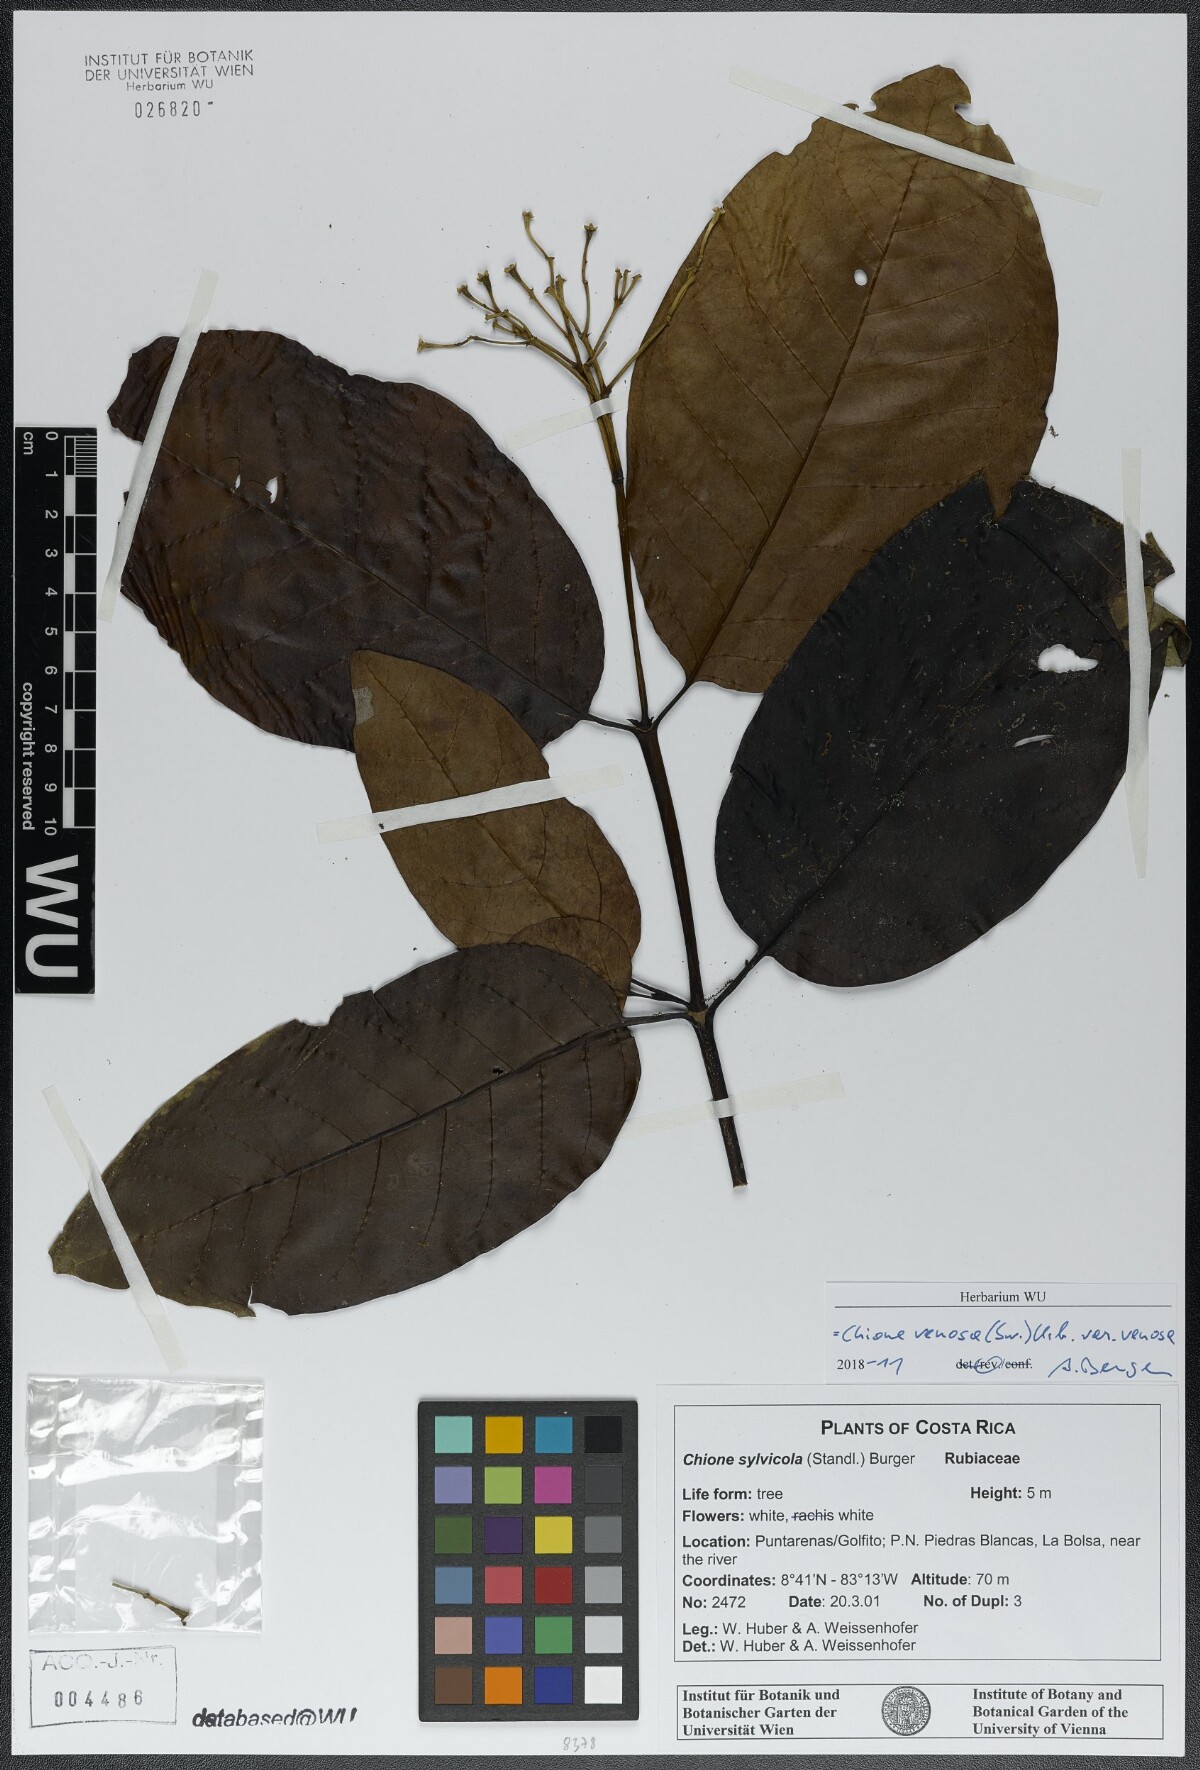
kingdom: Plantae
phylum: Tracheophyta
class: Magnoliopsida
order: Gentianales
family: Rubiaceae
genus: Chione
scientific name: Chione venosa
